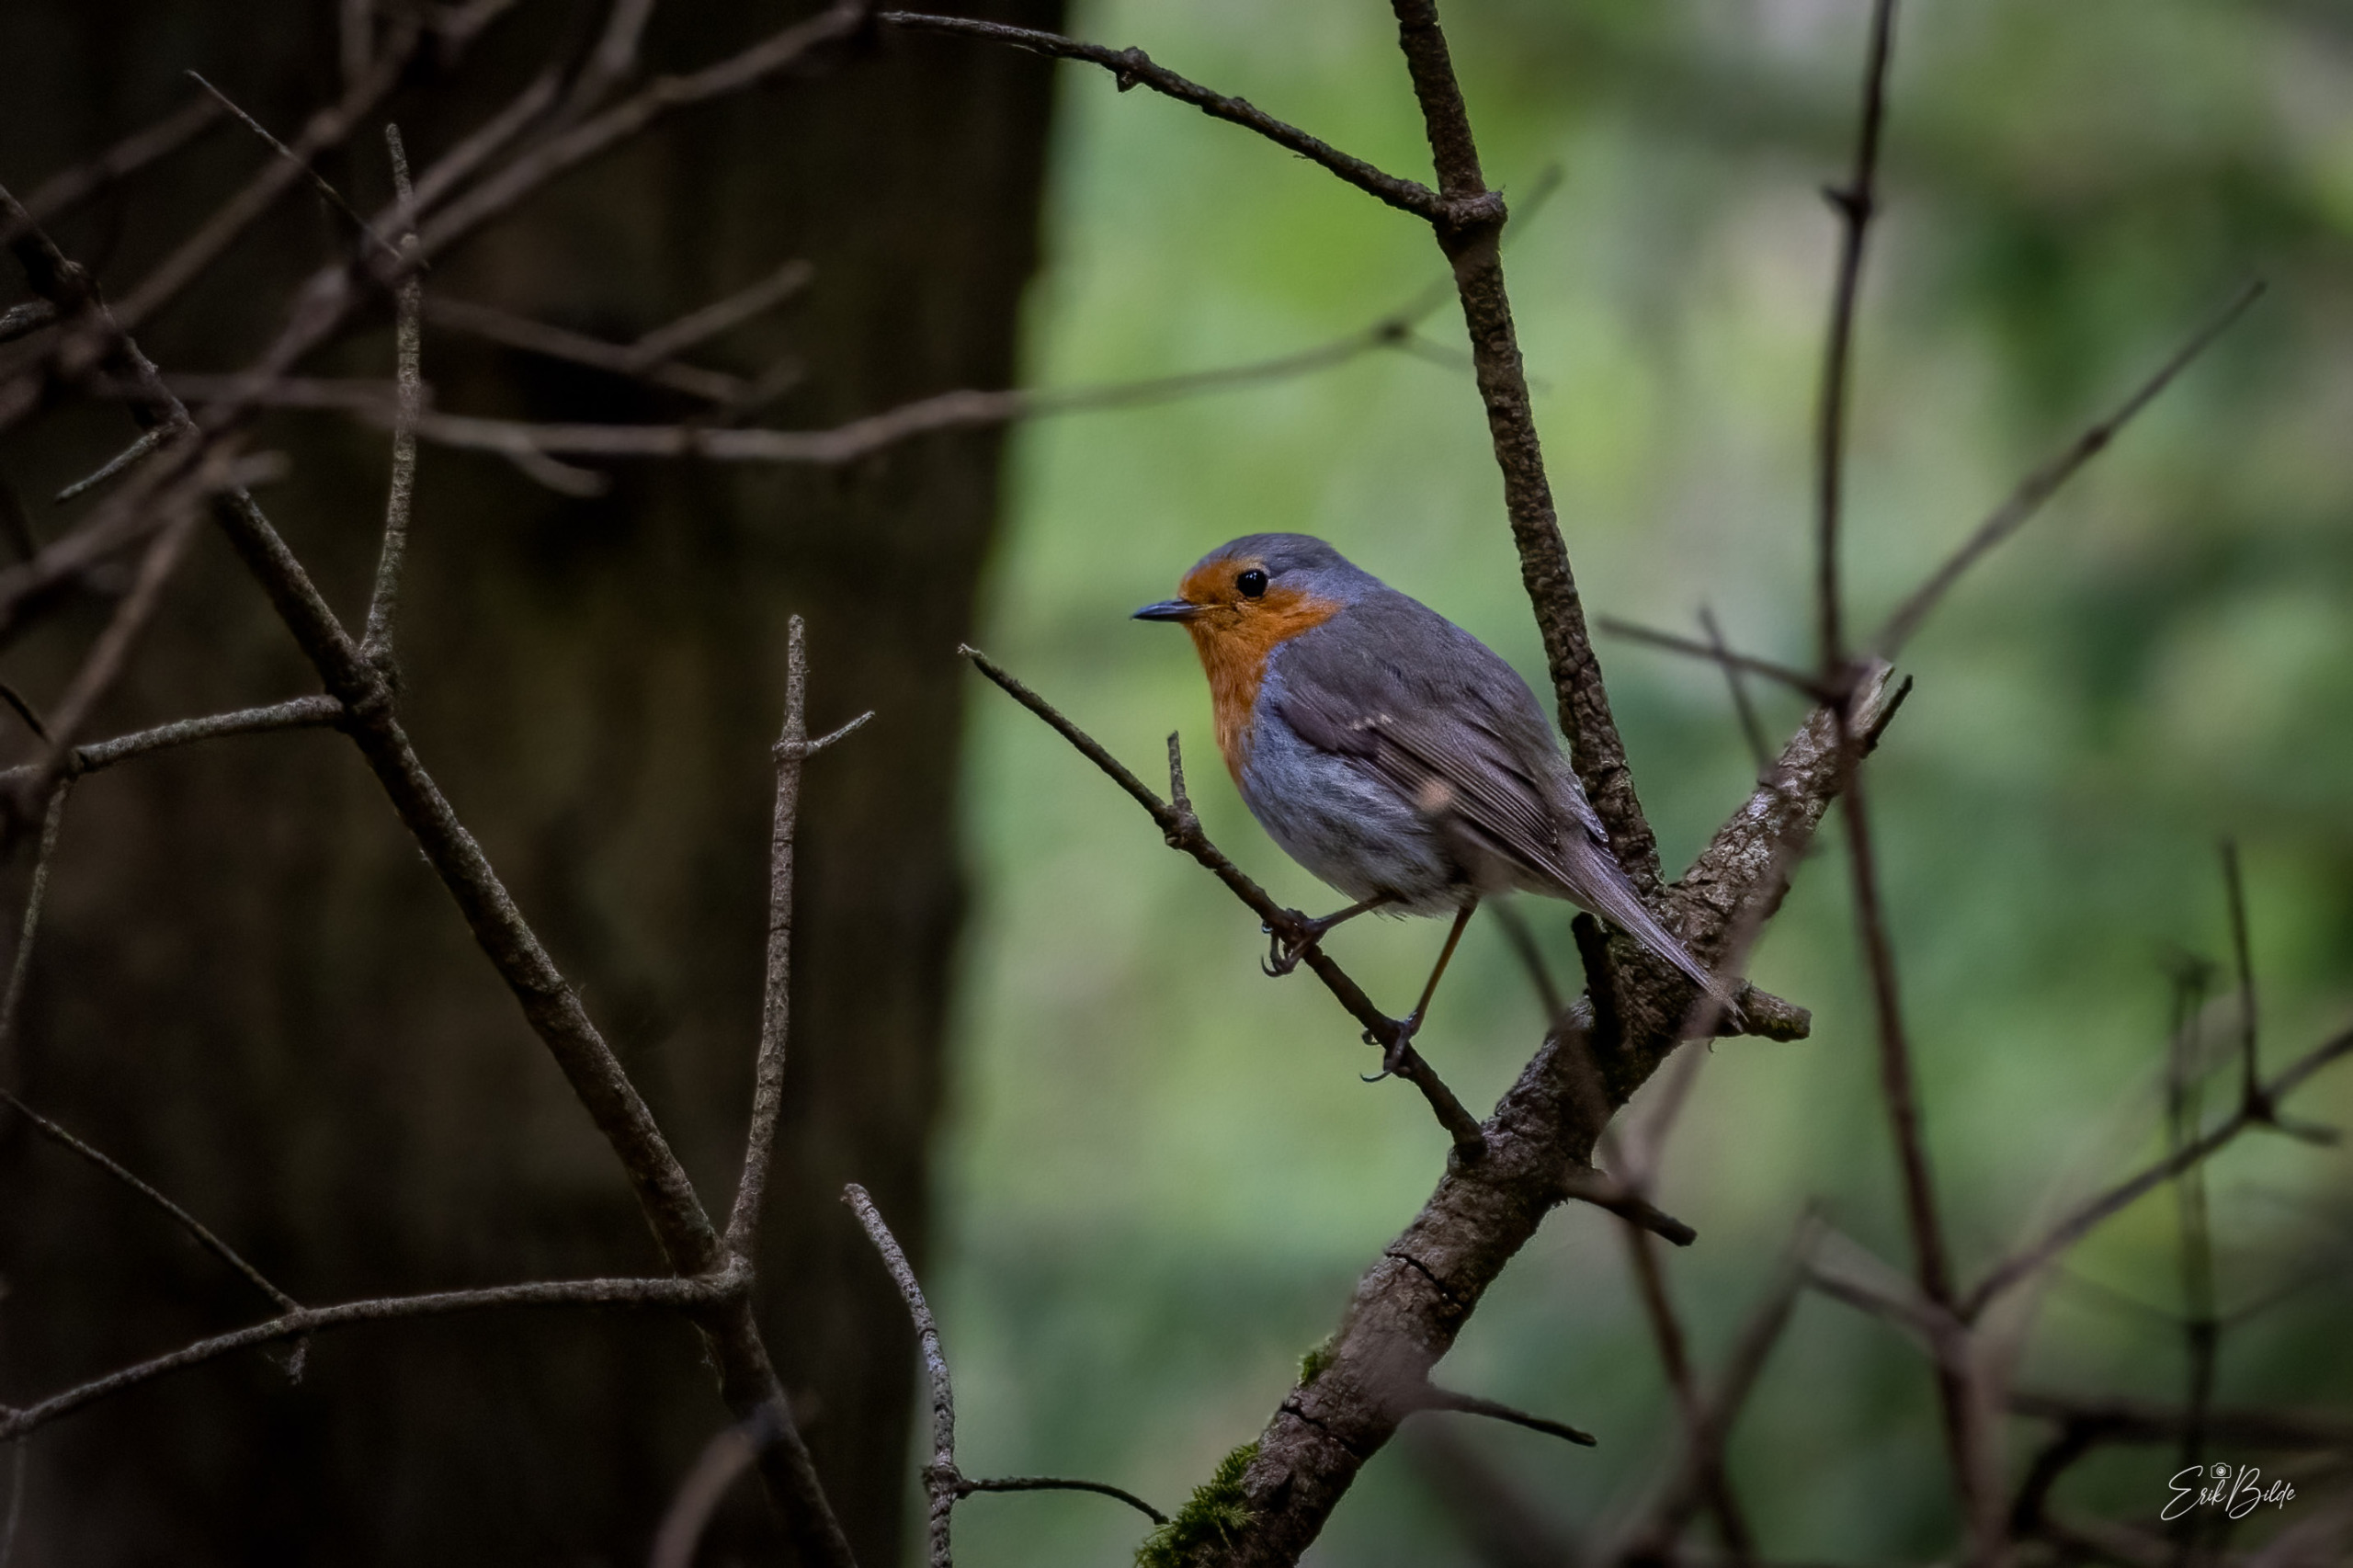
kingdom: Animalia
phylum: Chordata
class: Aves
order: Passeriformes
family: Muscicapidae
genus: Erithacus
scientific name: Erithacus rubecula
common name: Rødhals/rødkælk
